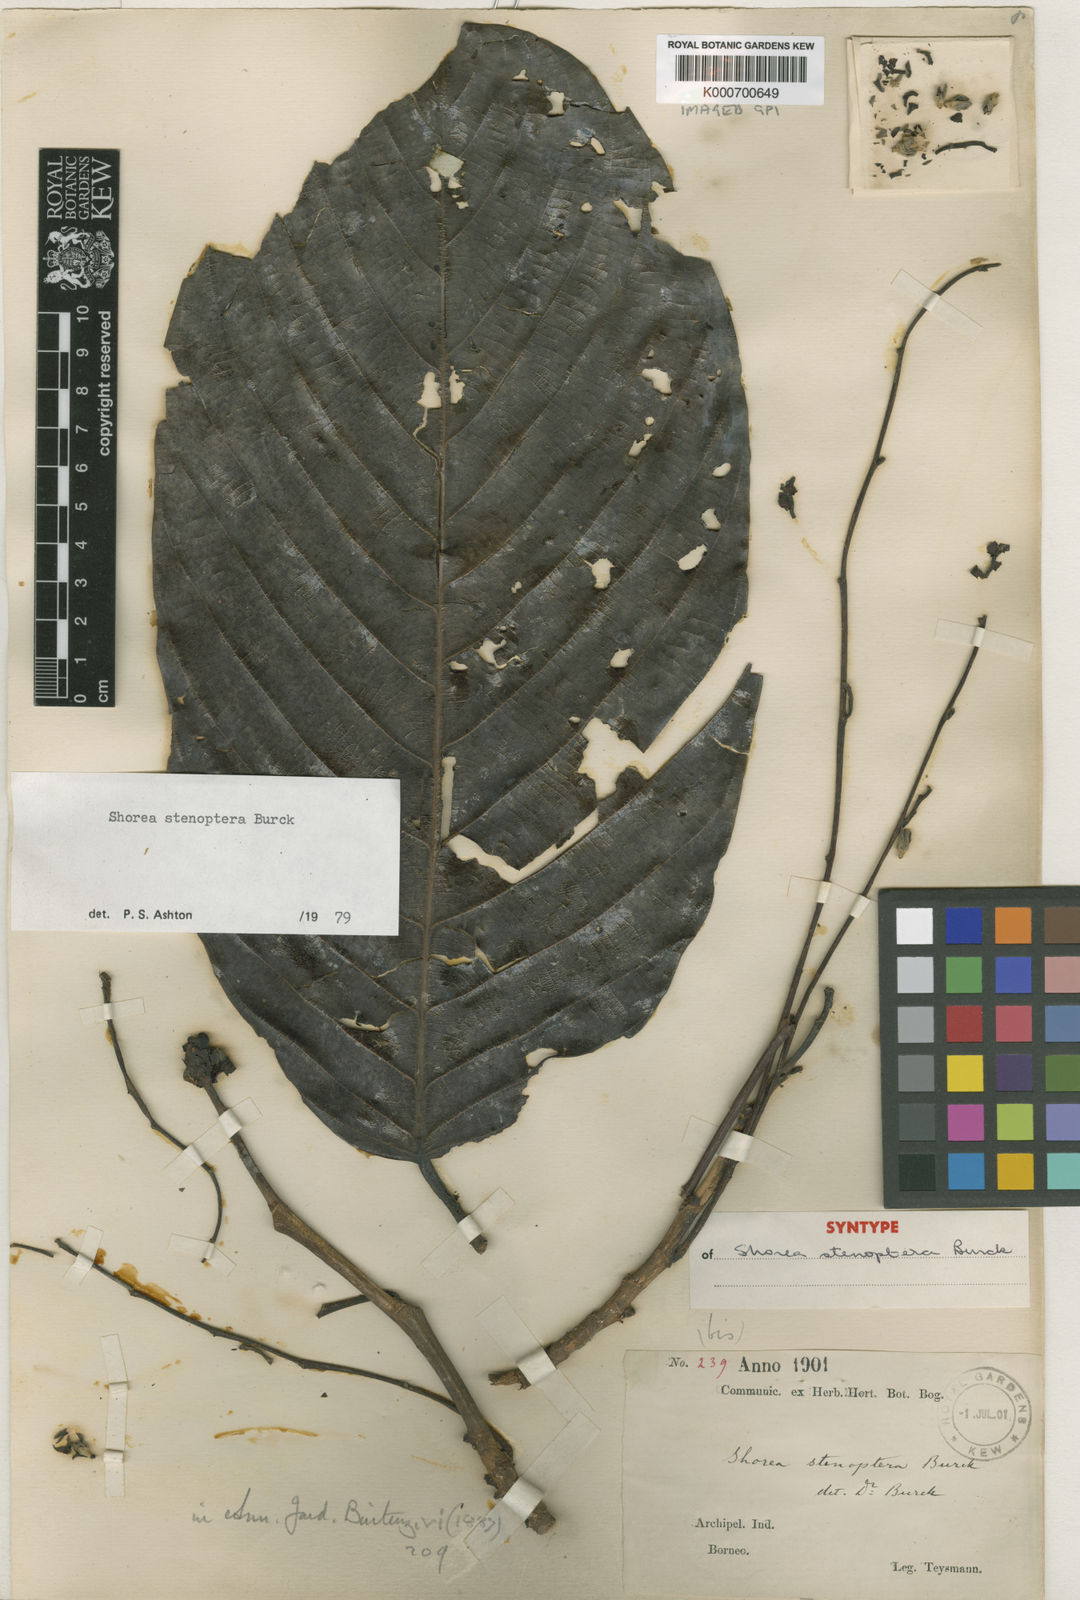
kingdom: Plantae
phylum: Tracheophyta
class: Magnoliopsida
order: Malvales
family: Dipterocarpaceae
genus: Shorea
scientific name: Shorea stenoptera
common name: Light red meranti
